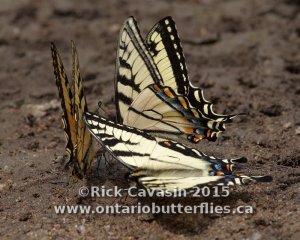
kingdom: Animalia
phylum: Arthropoda
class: Insecta
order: Lepidoptera
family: Papilionidae
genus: Pterourus
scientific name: Pterourus canadensis
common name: Canadian Tiger Swallowtail
